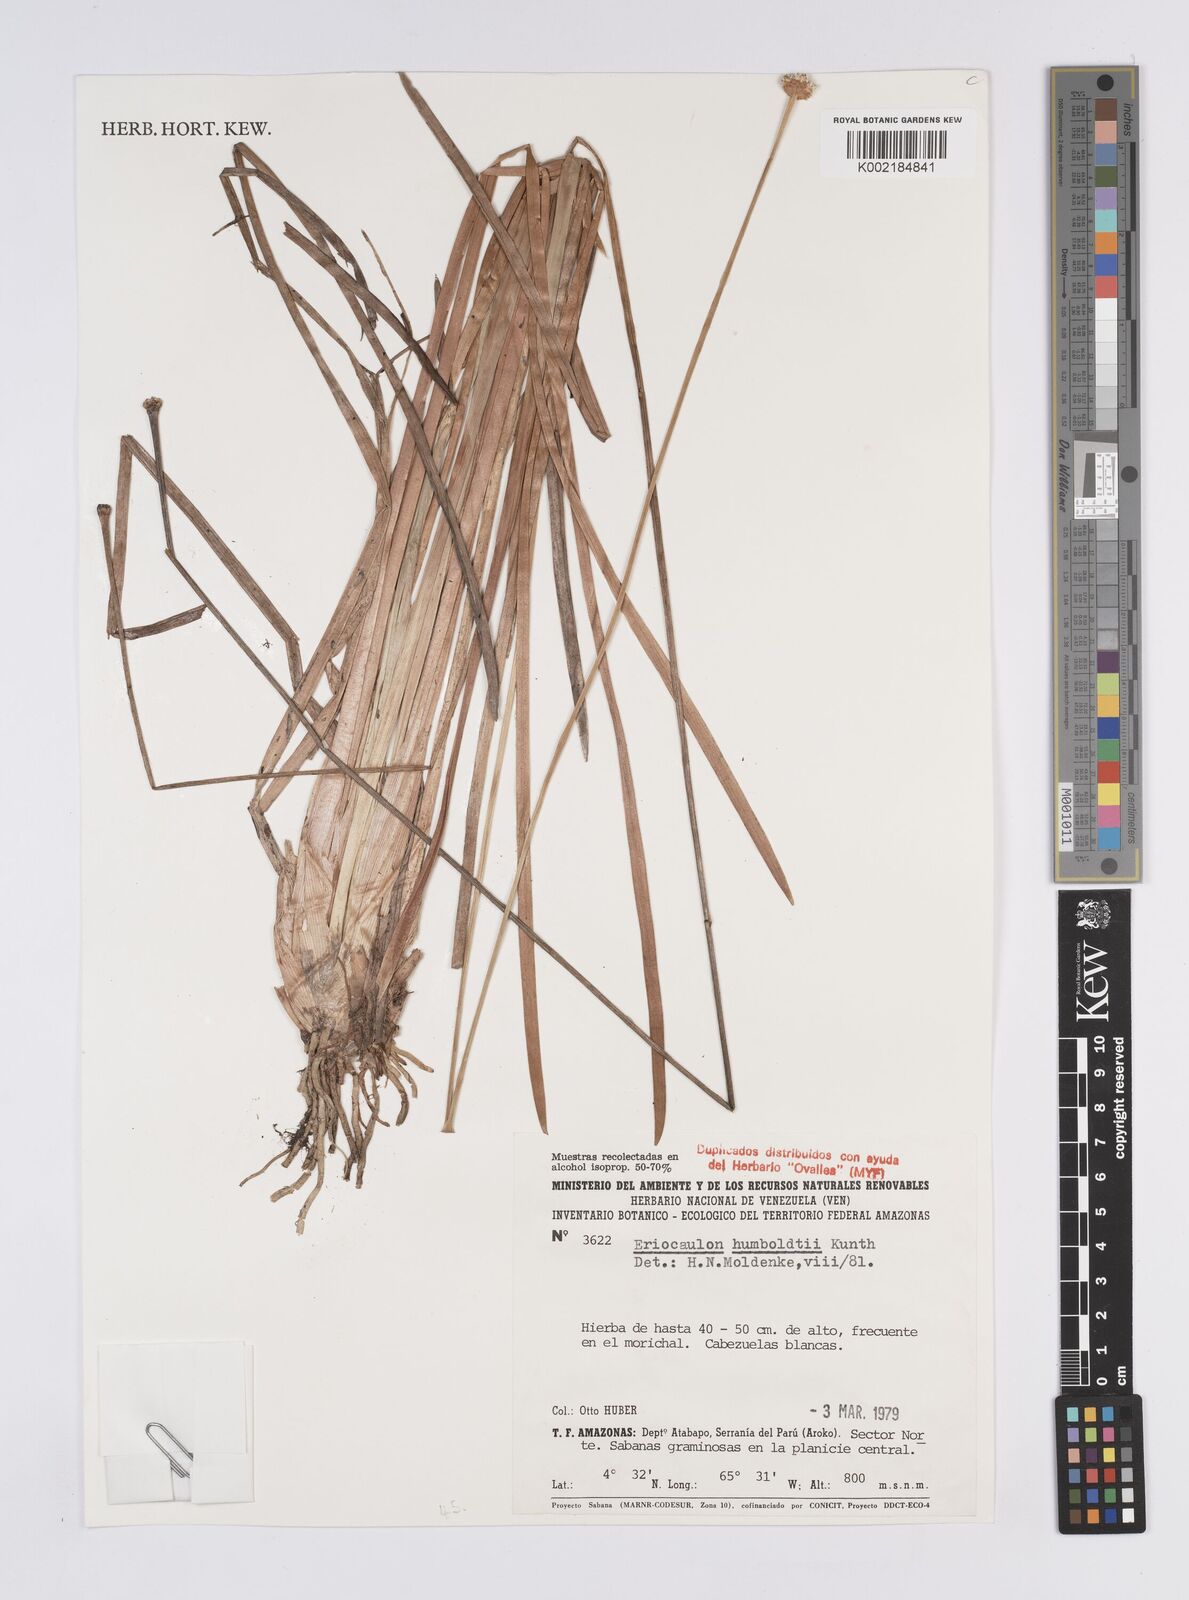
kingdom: Plantae
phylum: Tracheophyta
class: Liliopsida
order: Poales
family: Eriocaulaceae
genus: Eriocaulon
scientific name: Eriocaulon humboldtii
